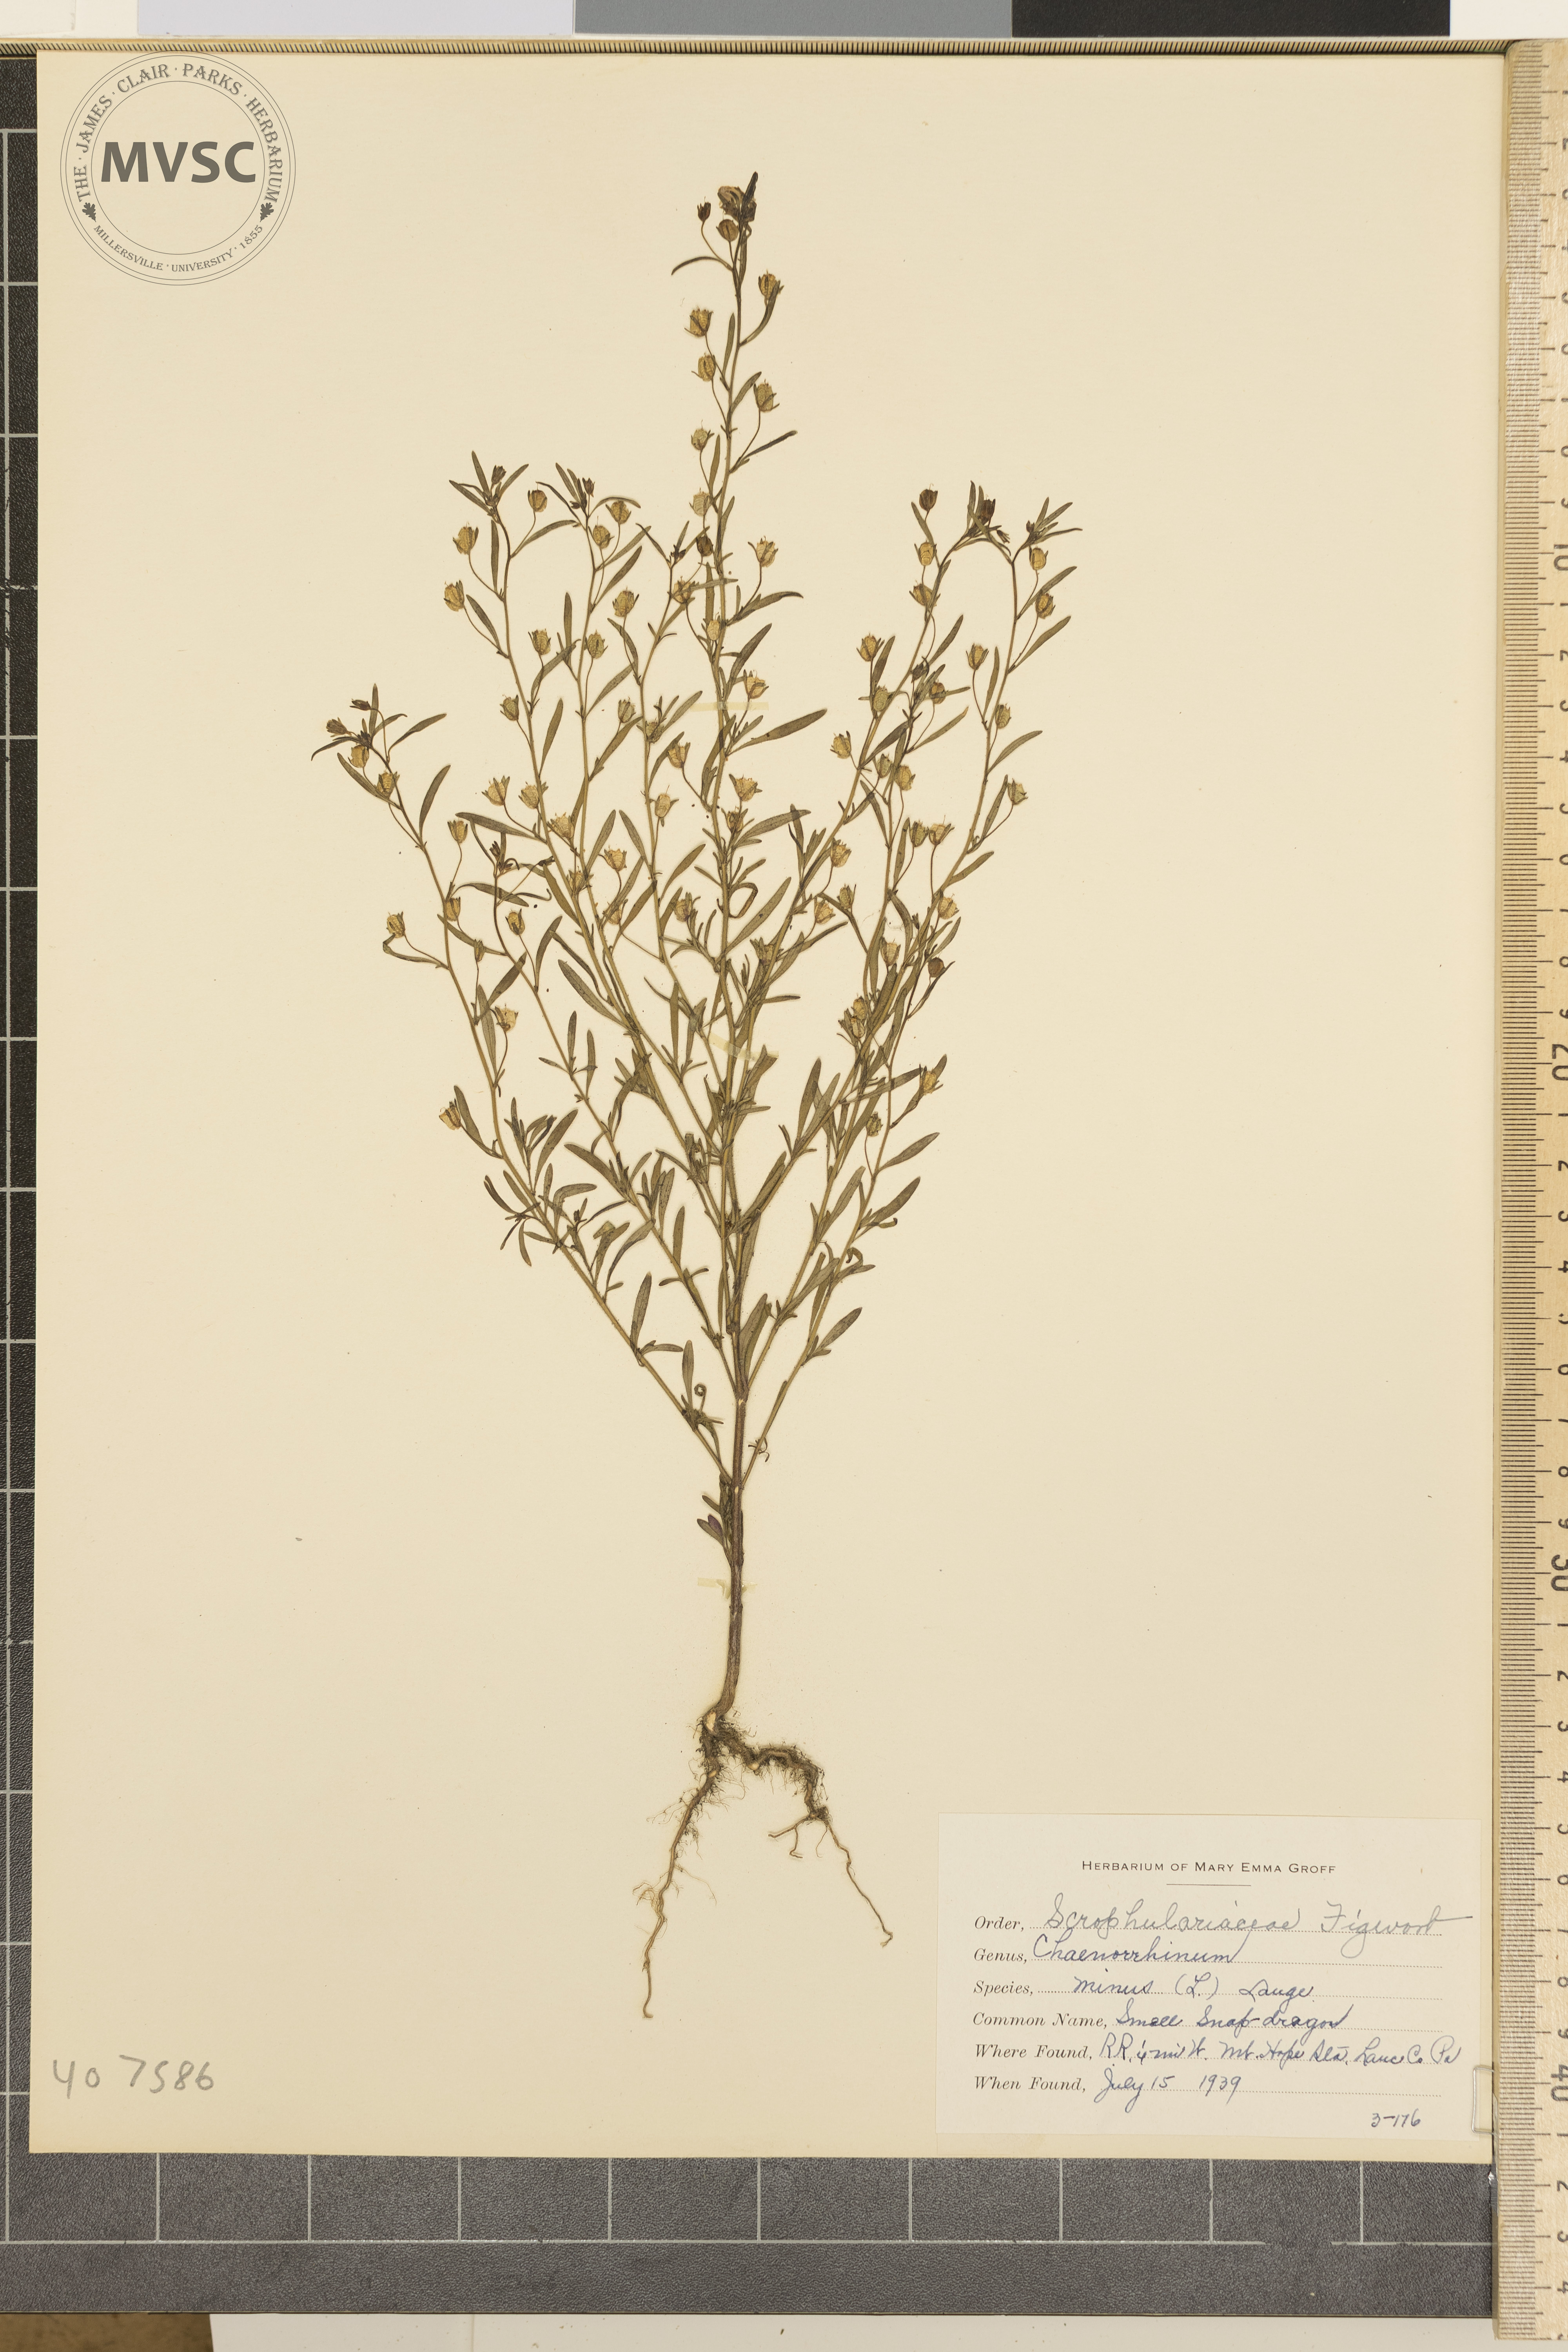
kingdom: Plantae
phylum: Tracheophyta
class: Magnoliopsida
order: Lamiales
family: Plantaginaceae
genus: Chaenorhinum
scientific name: Chaenorhinum minus
